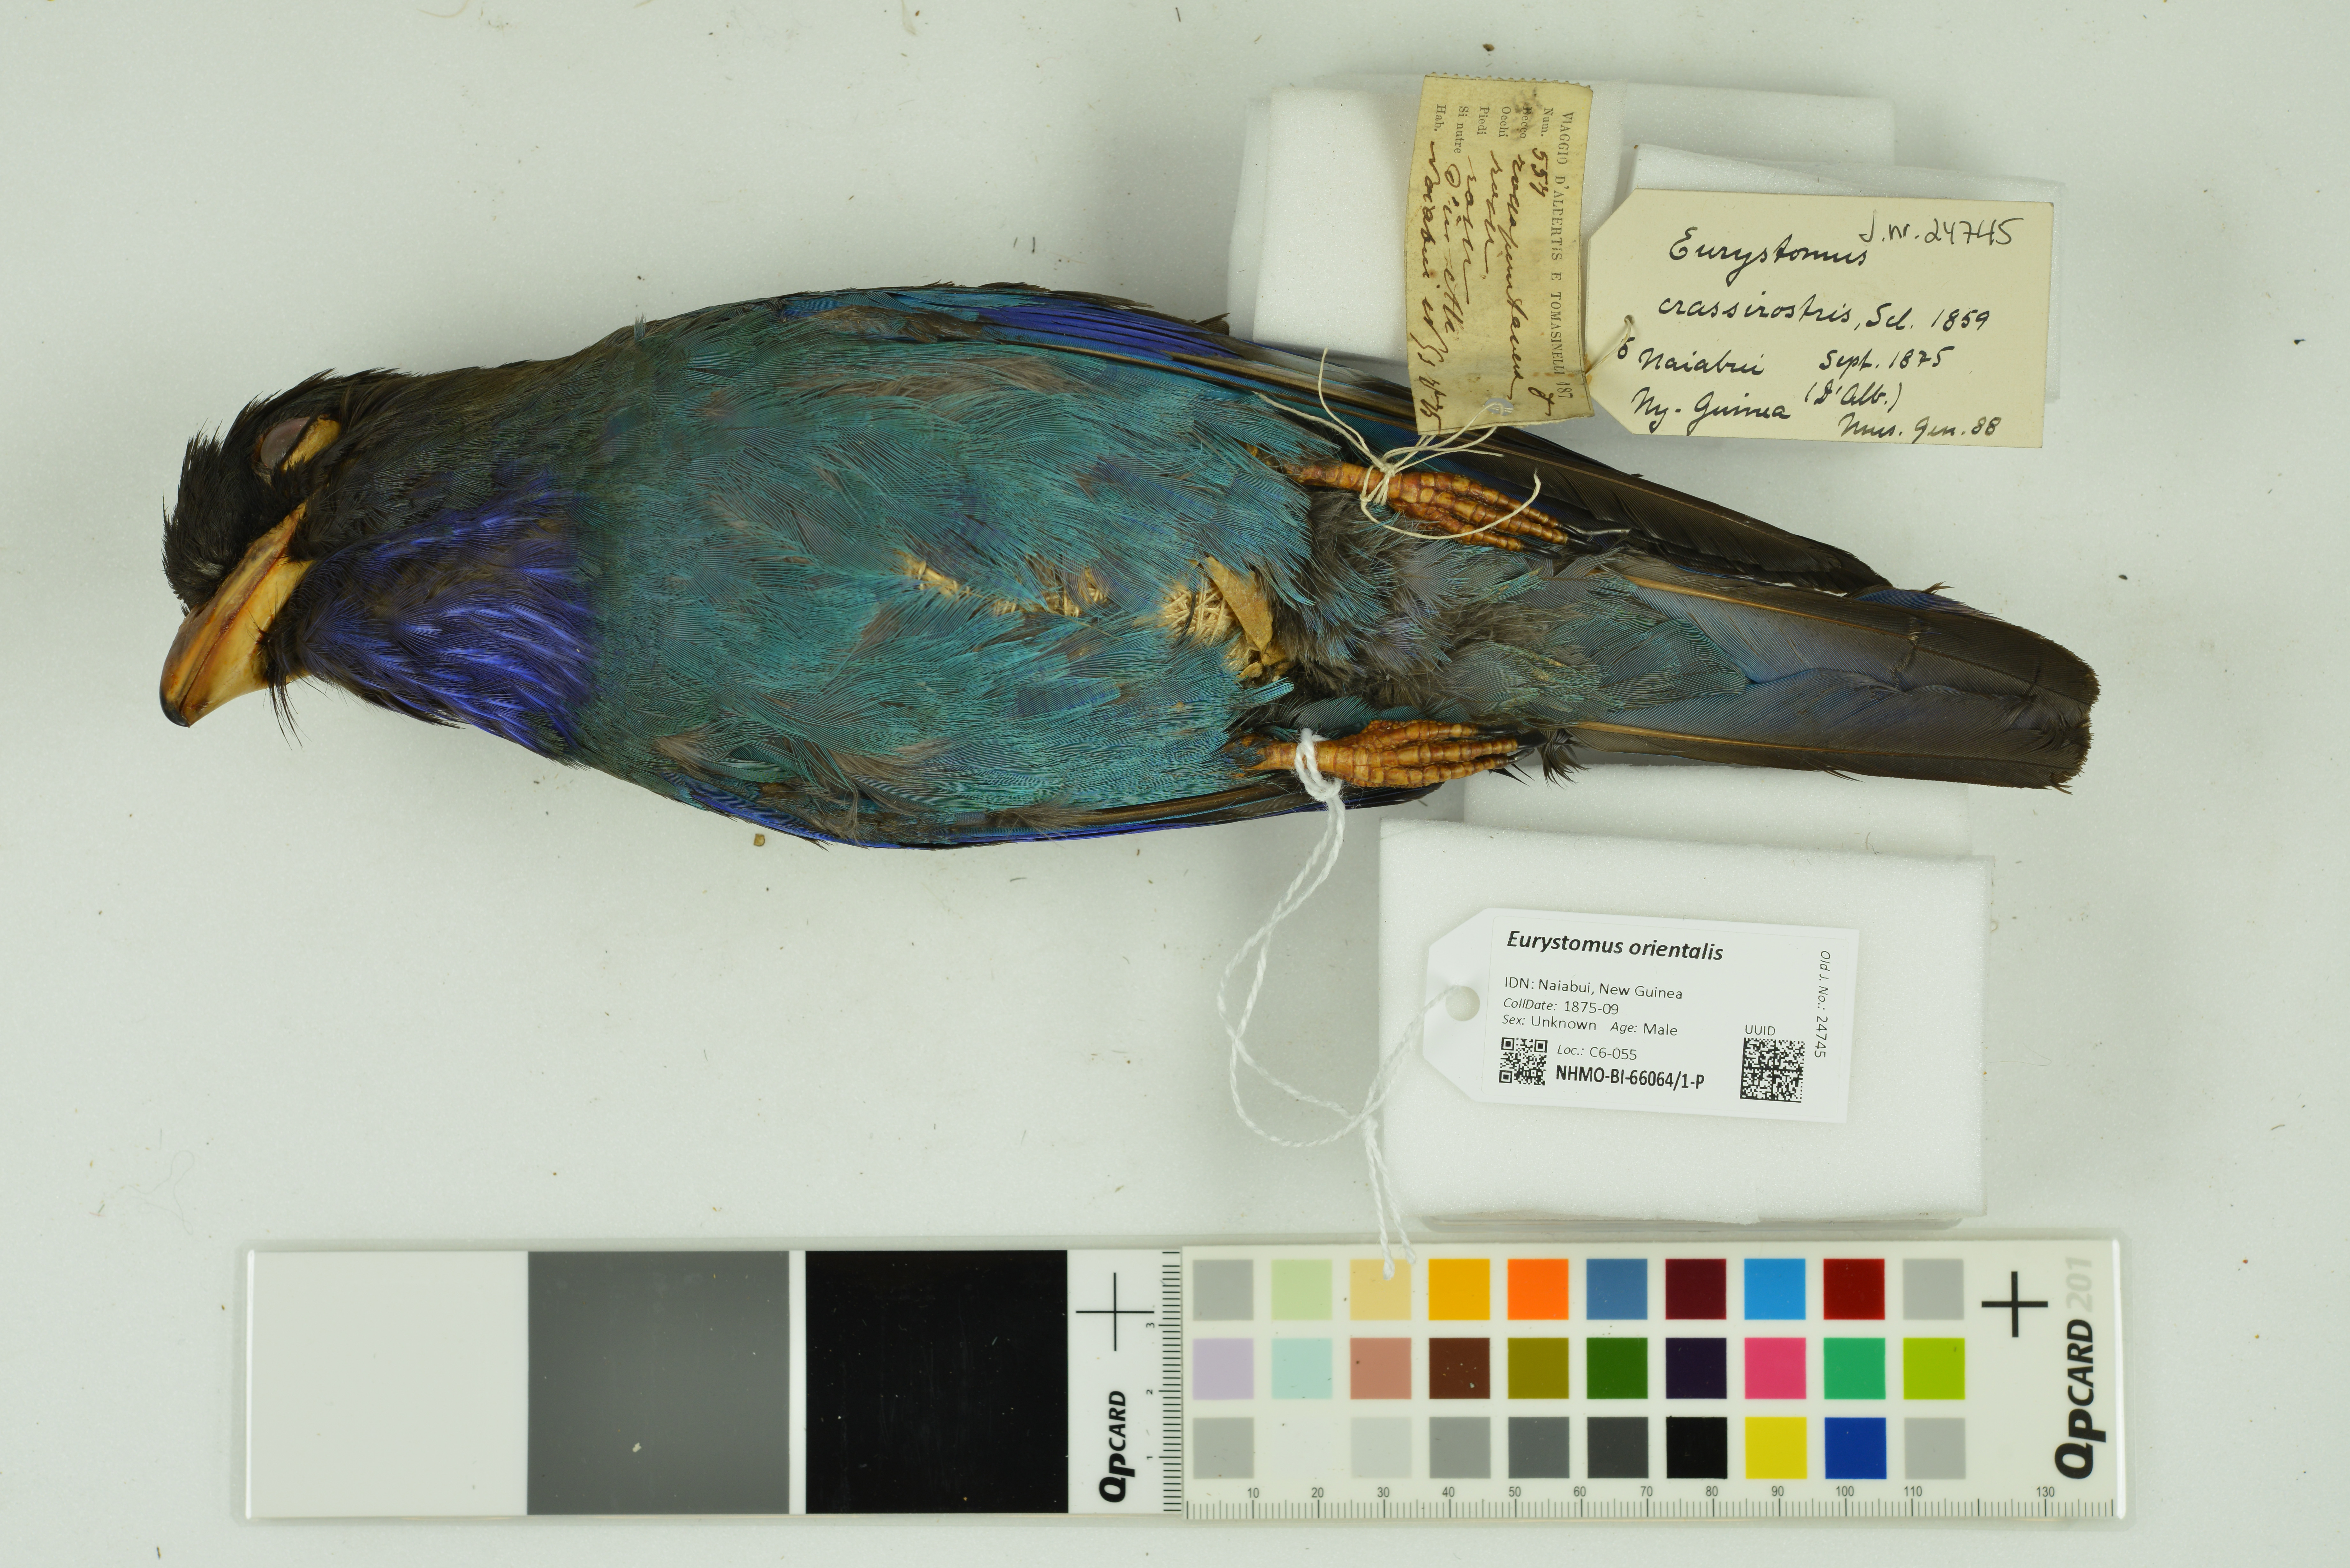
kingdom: Animalia
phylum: Chordata
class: Aves
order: Coraciiformes
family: Coraciidae
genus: Eurystomus
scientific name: Eurystomus orientalis
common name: Oriental dollarbird
